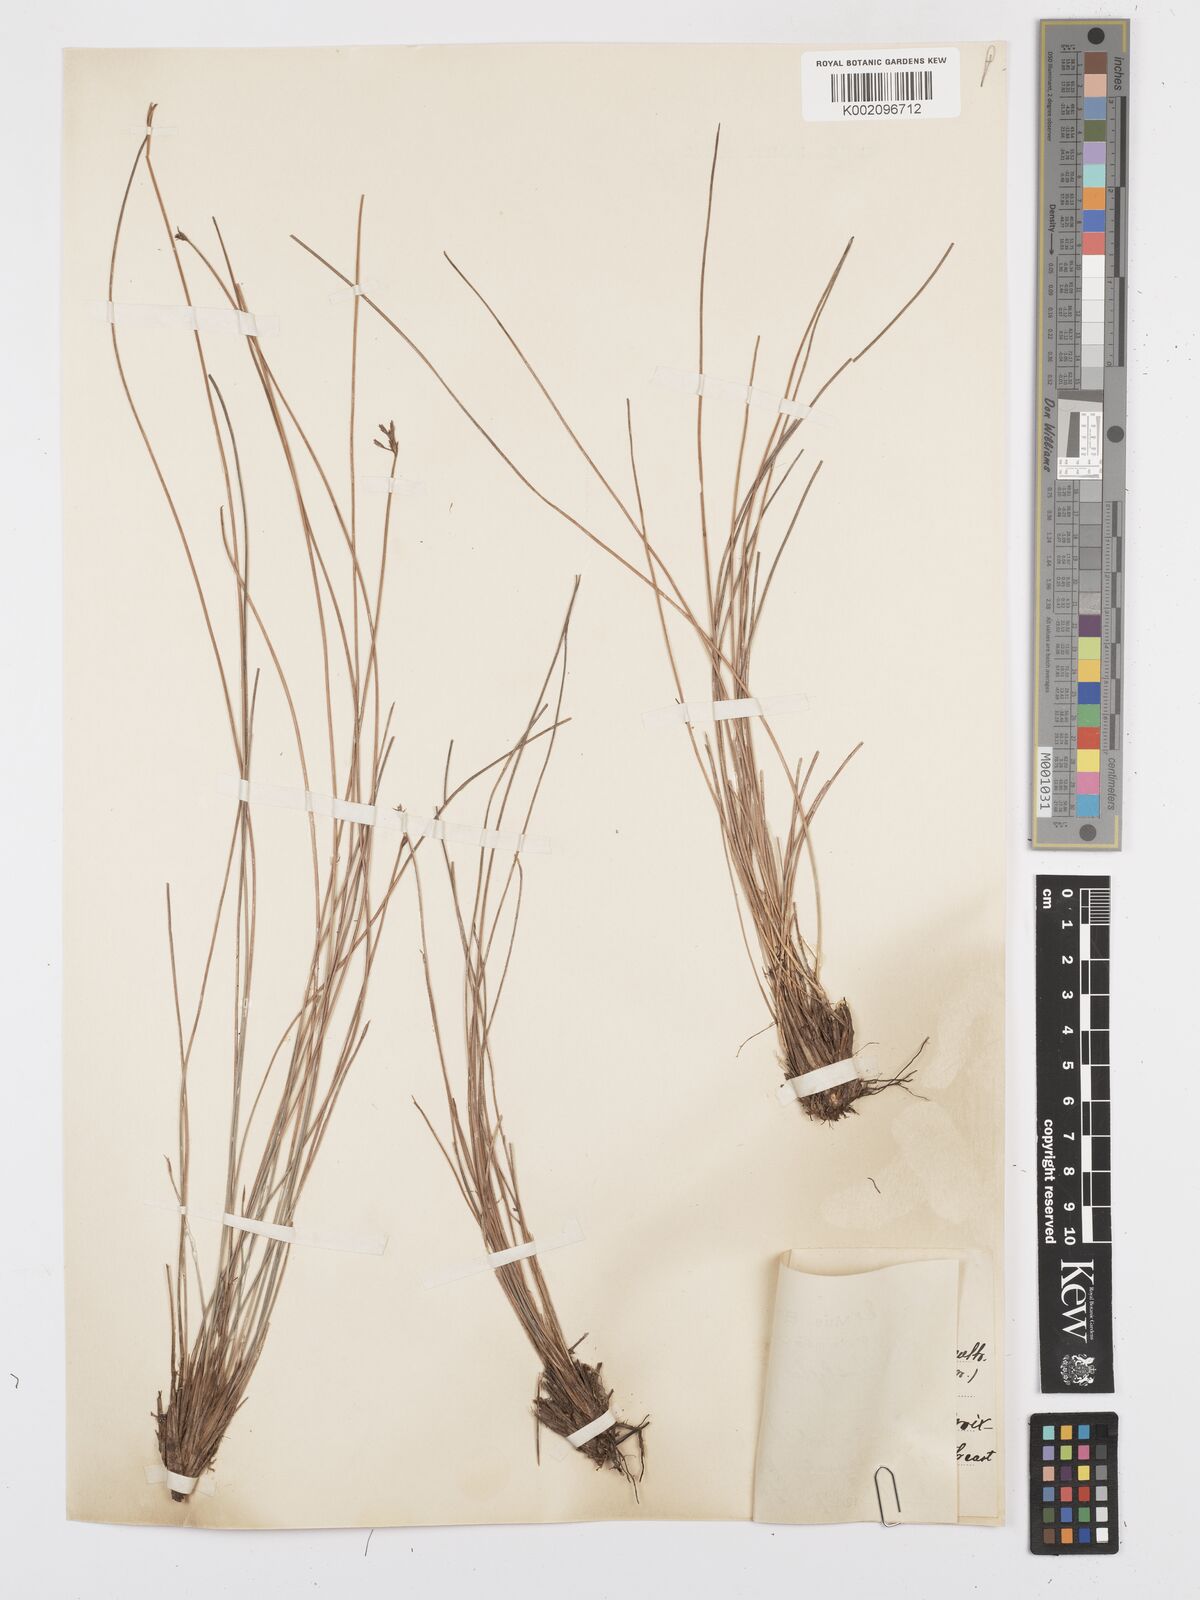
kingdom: Plantae
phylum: Tracheophyta
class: Liliopsida
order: Poales
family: Cyperaceae
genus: Bulbostylis
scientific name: Bulbostylis subaphylla
